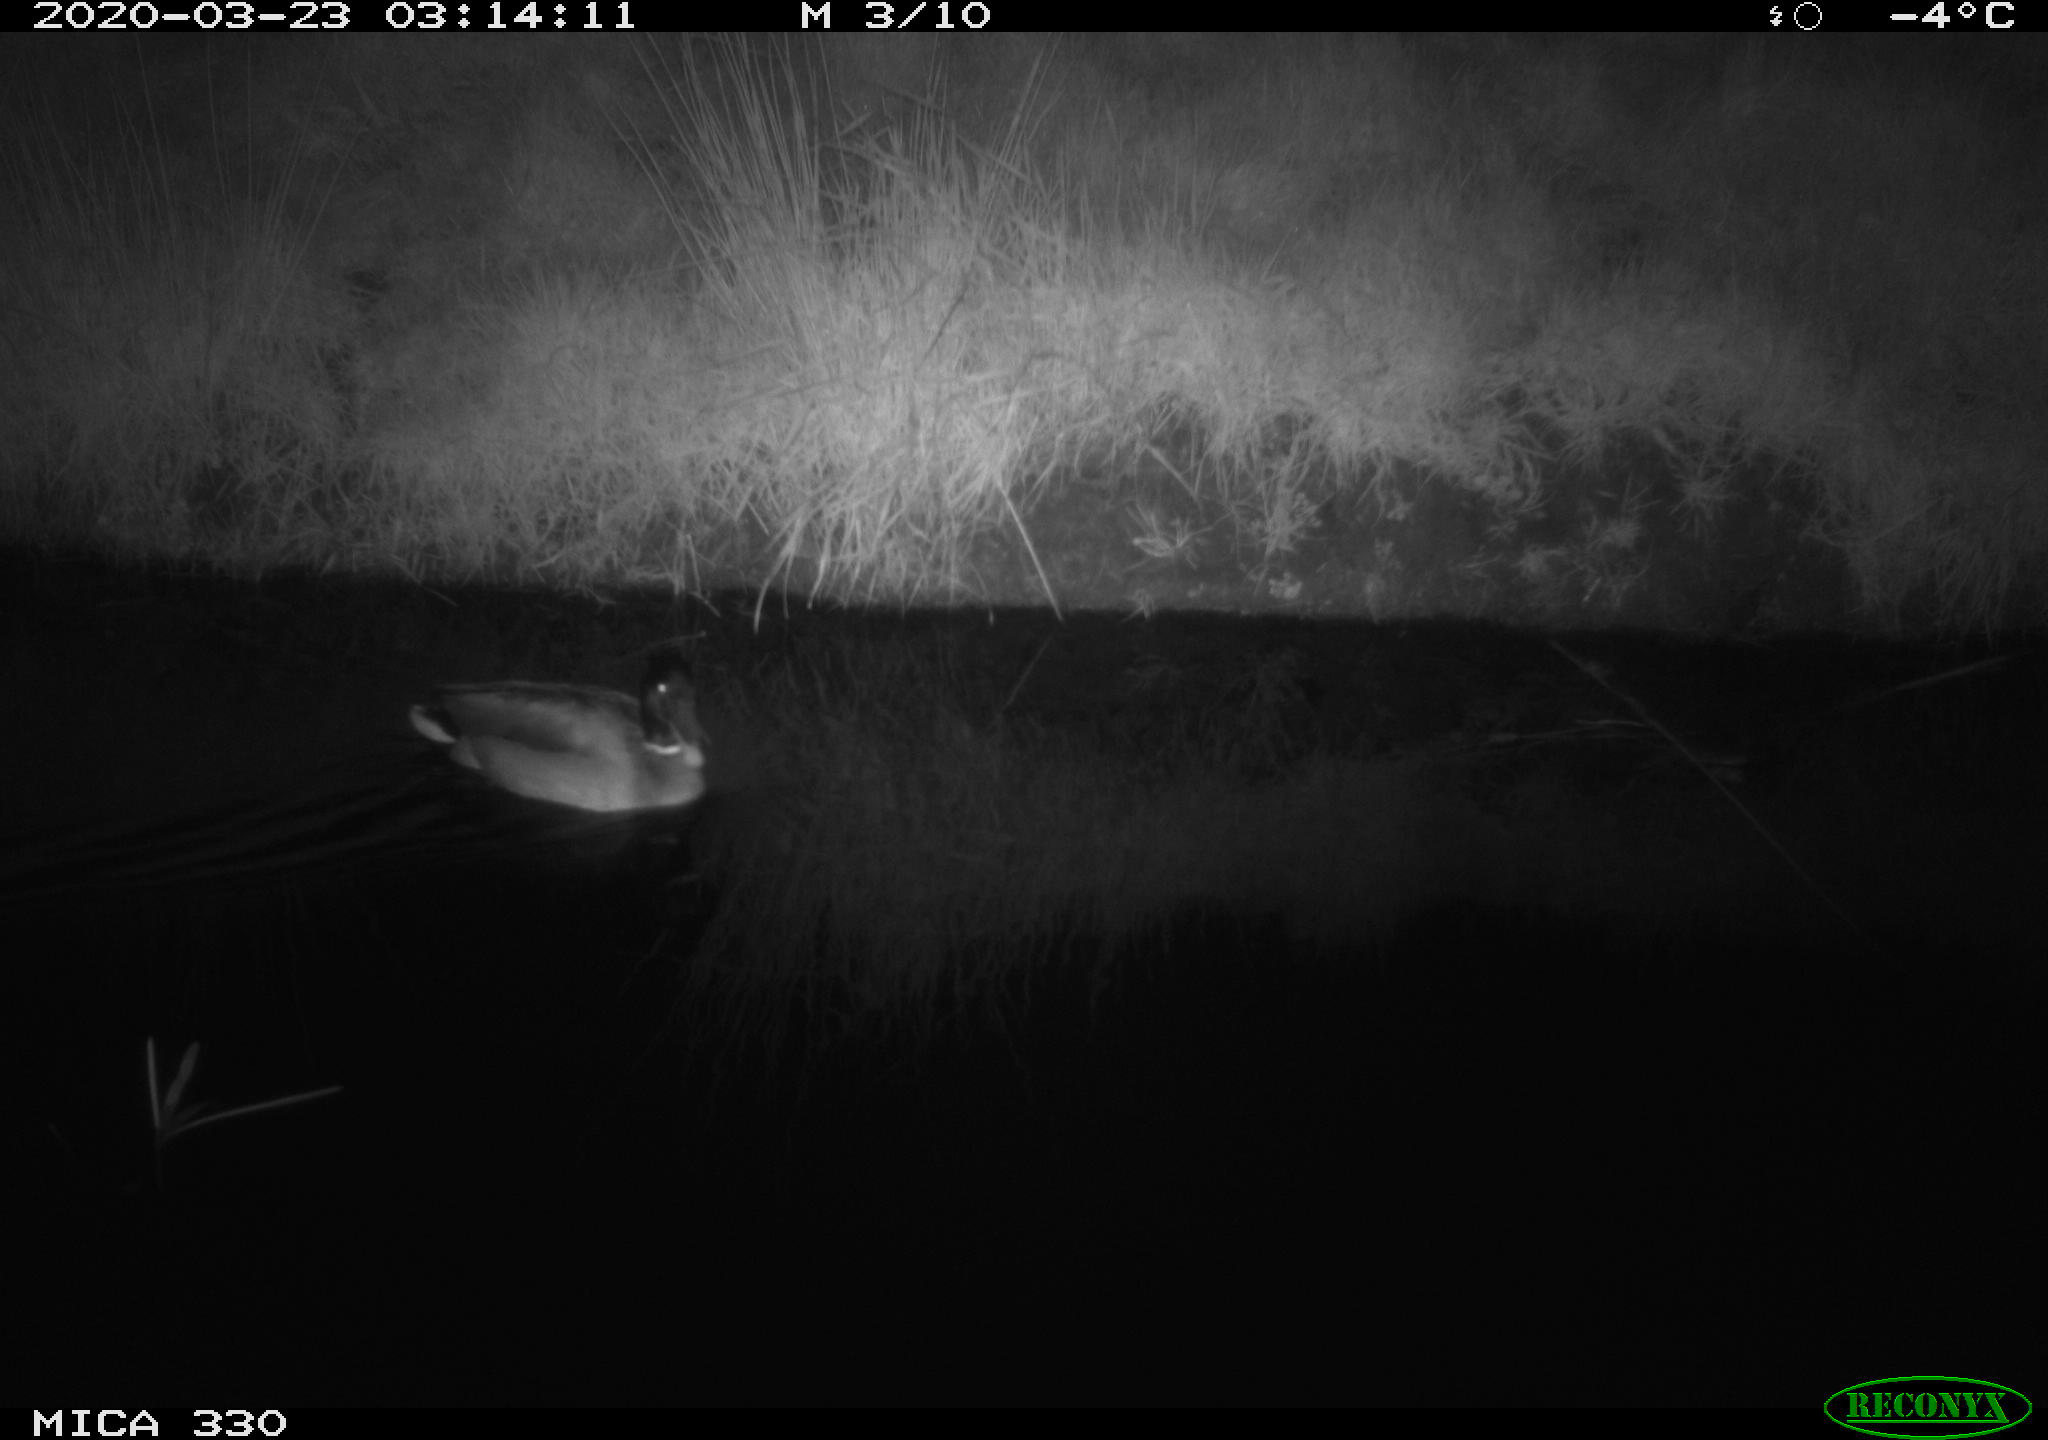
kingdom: Animalia
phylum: Chordata
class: Aves
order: Anseriformes
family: Anatidae
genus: Anas
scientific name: Anas platyrhynchos
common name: Mallard
